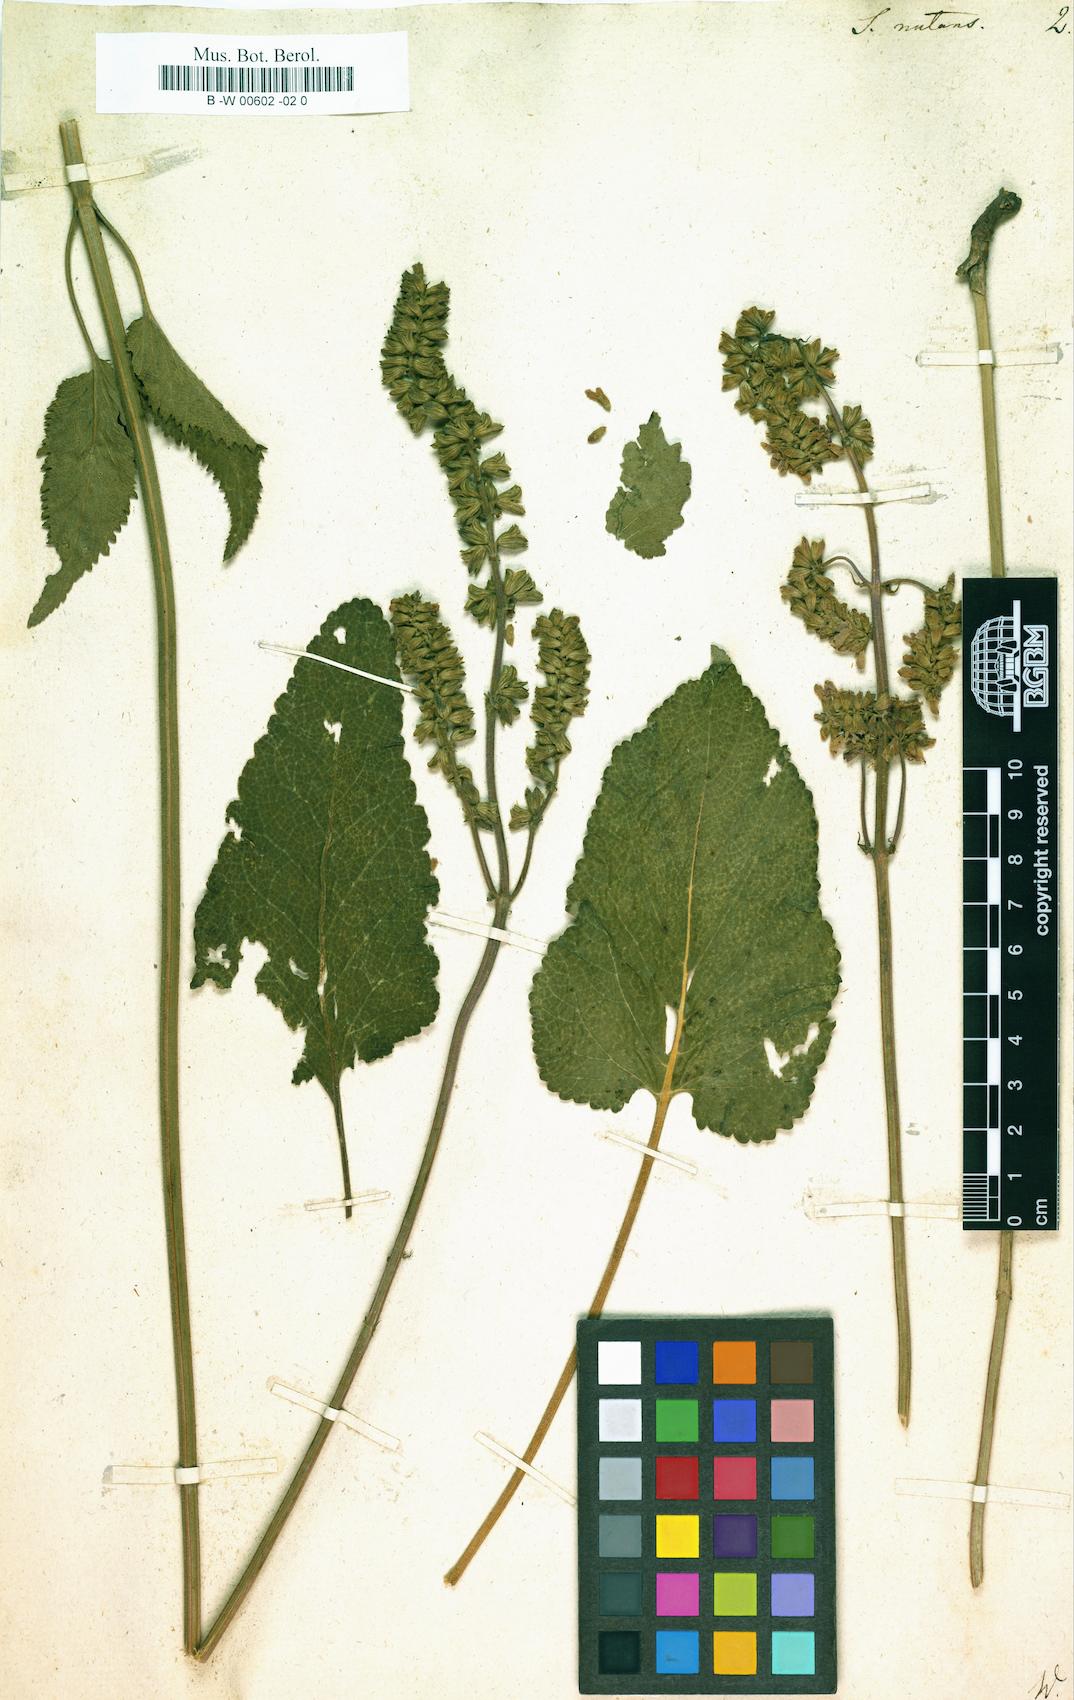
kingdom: Plantae
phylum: Tracheophyta
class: Magnoliopsida
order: Lamiales
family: Lamiaceae
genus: Salvia
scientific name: Salvia nutans
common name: Nodding sage
